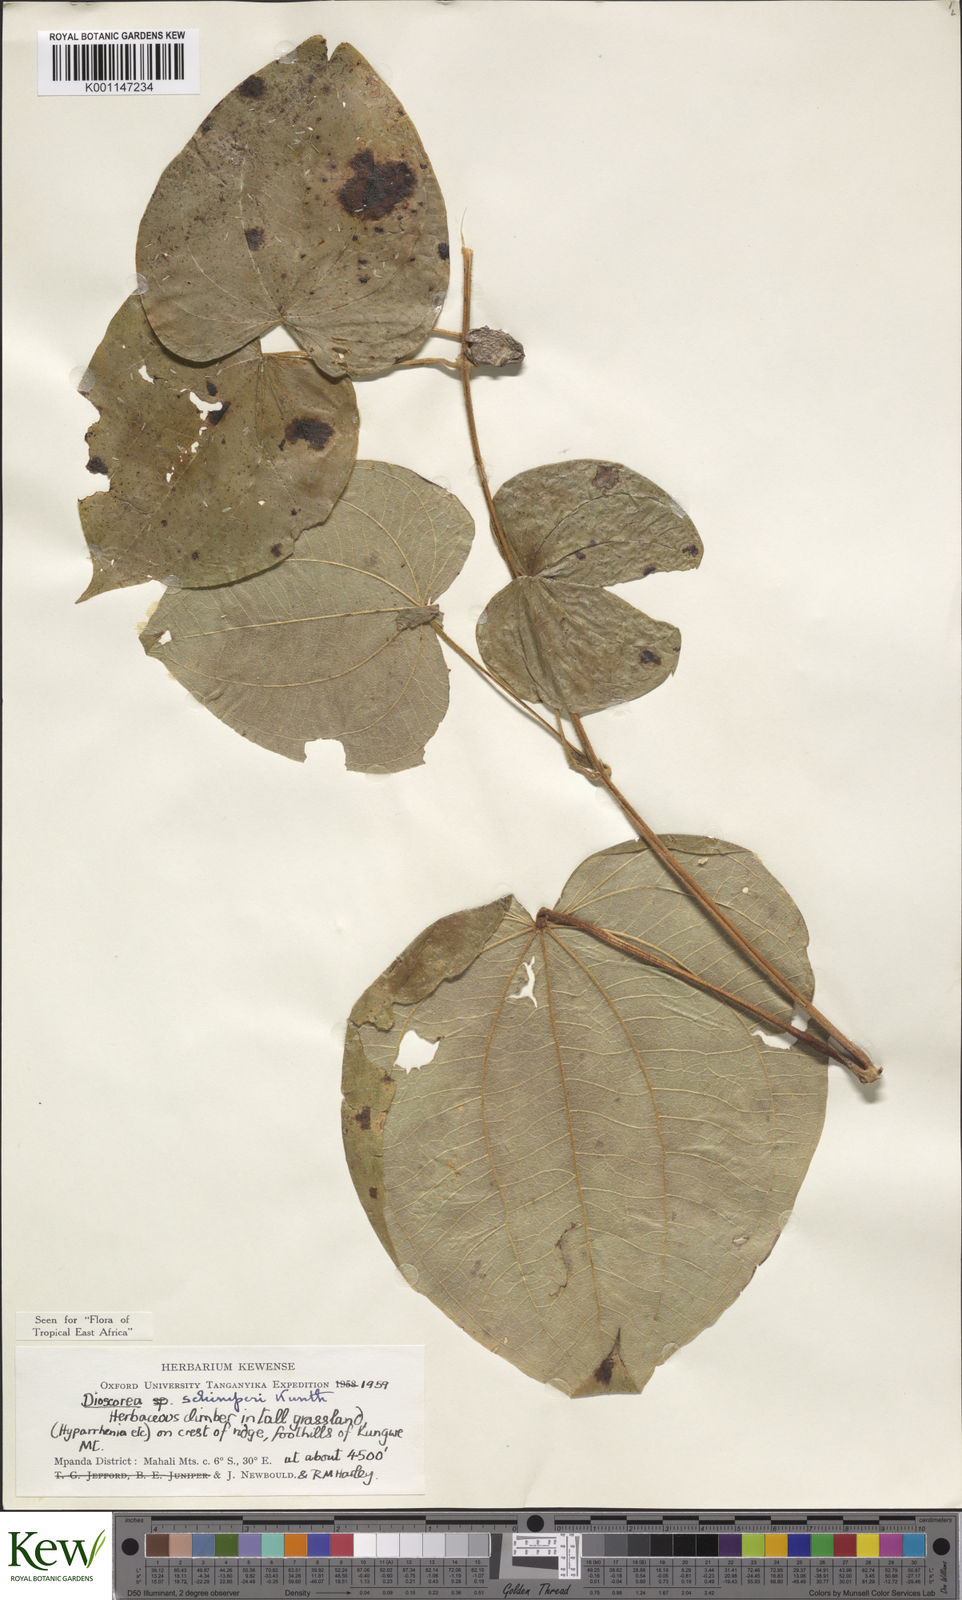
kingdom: Plantae
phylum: Tracheophyta
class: Liliopsida
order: Dioscoreales
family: Dioscoreaceae
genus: Dioscorea
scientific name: Dioscorea schimperiana
